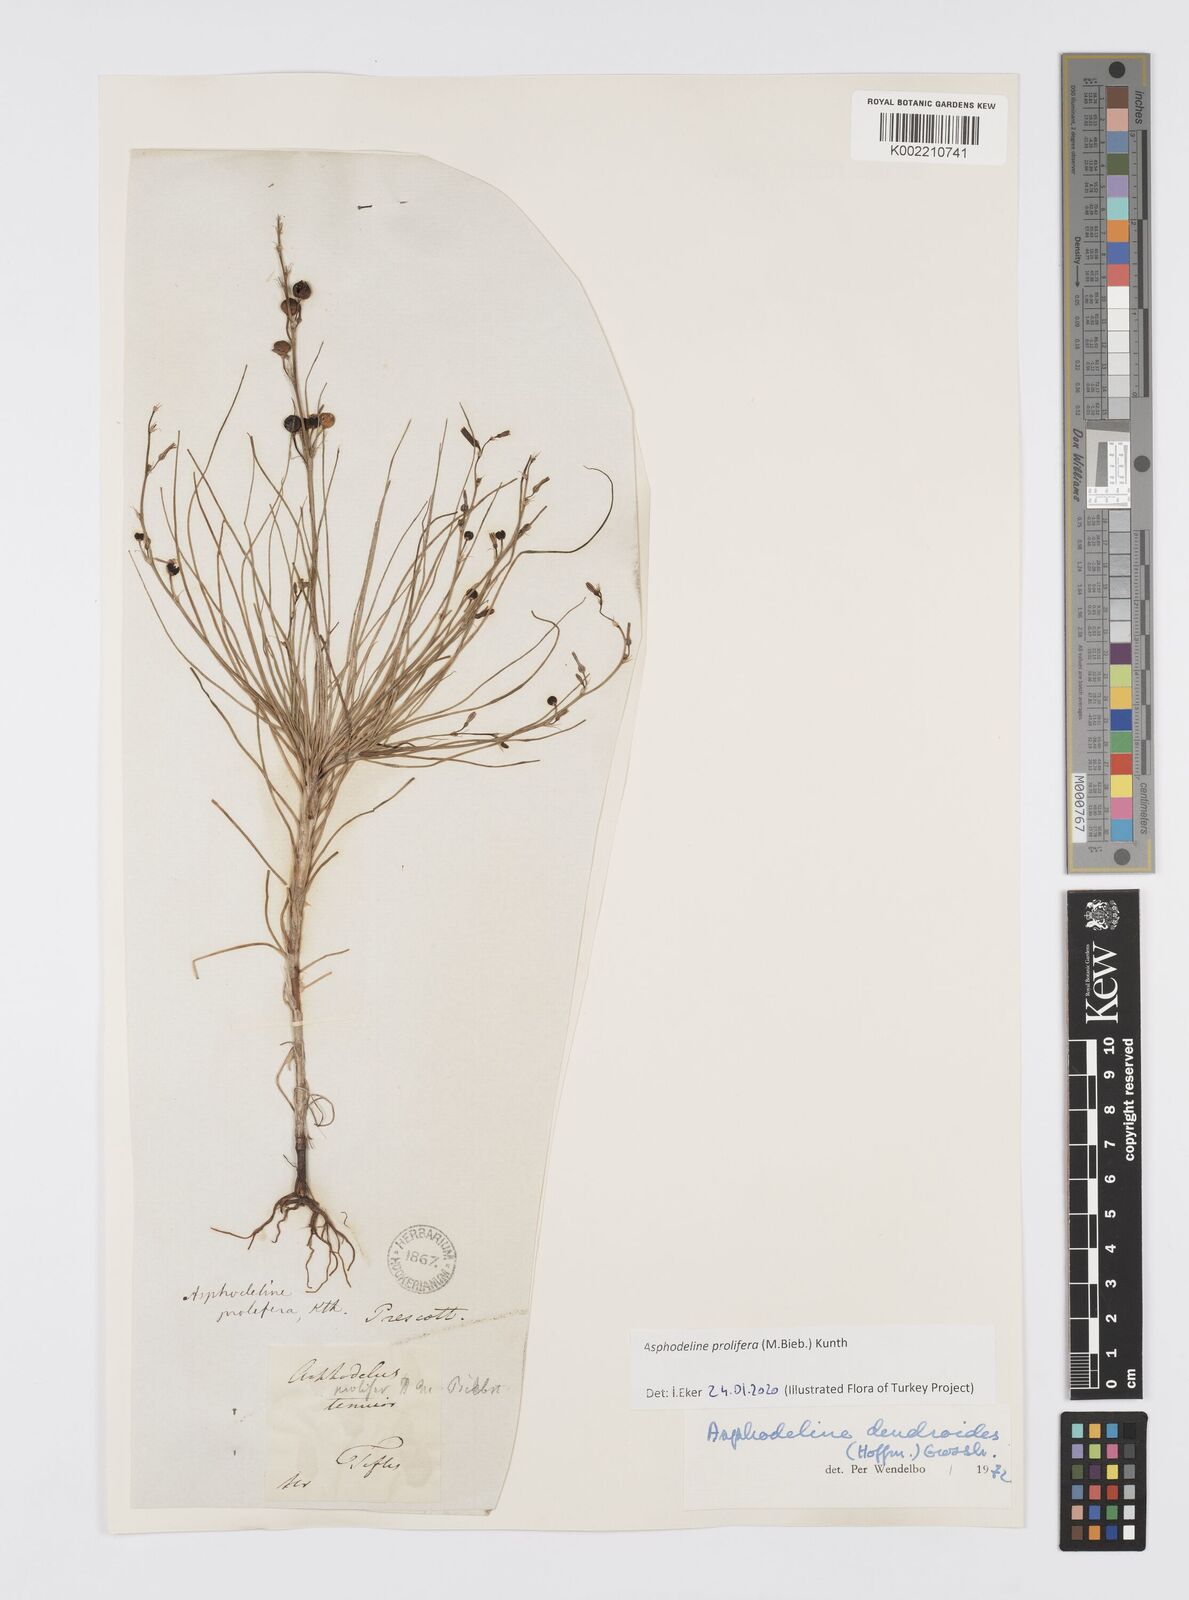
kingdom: Plantae
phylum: Tracheophyta
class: Liliopsida
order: Asparagales
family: Asphodelaceae
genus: Asphodeline
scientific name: Asphodeline prolifera
